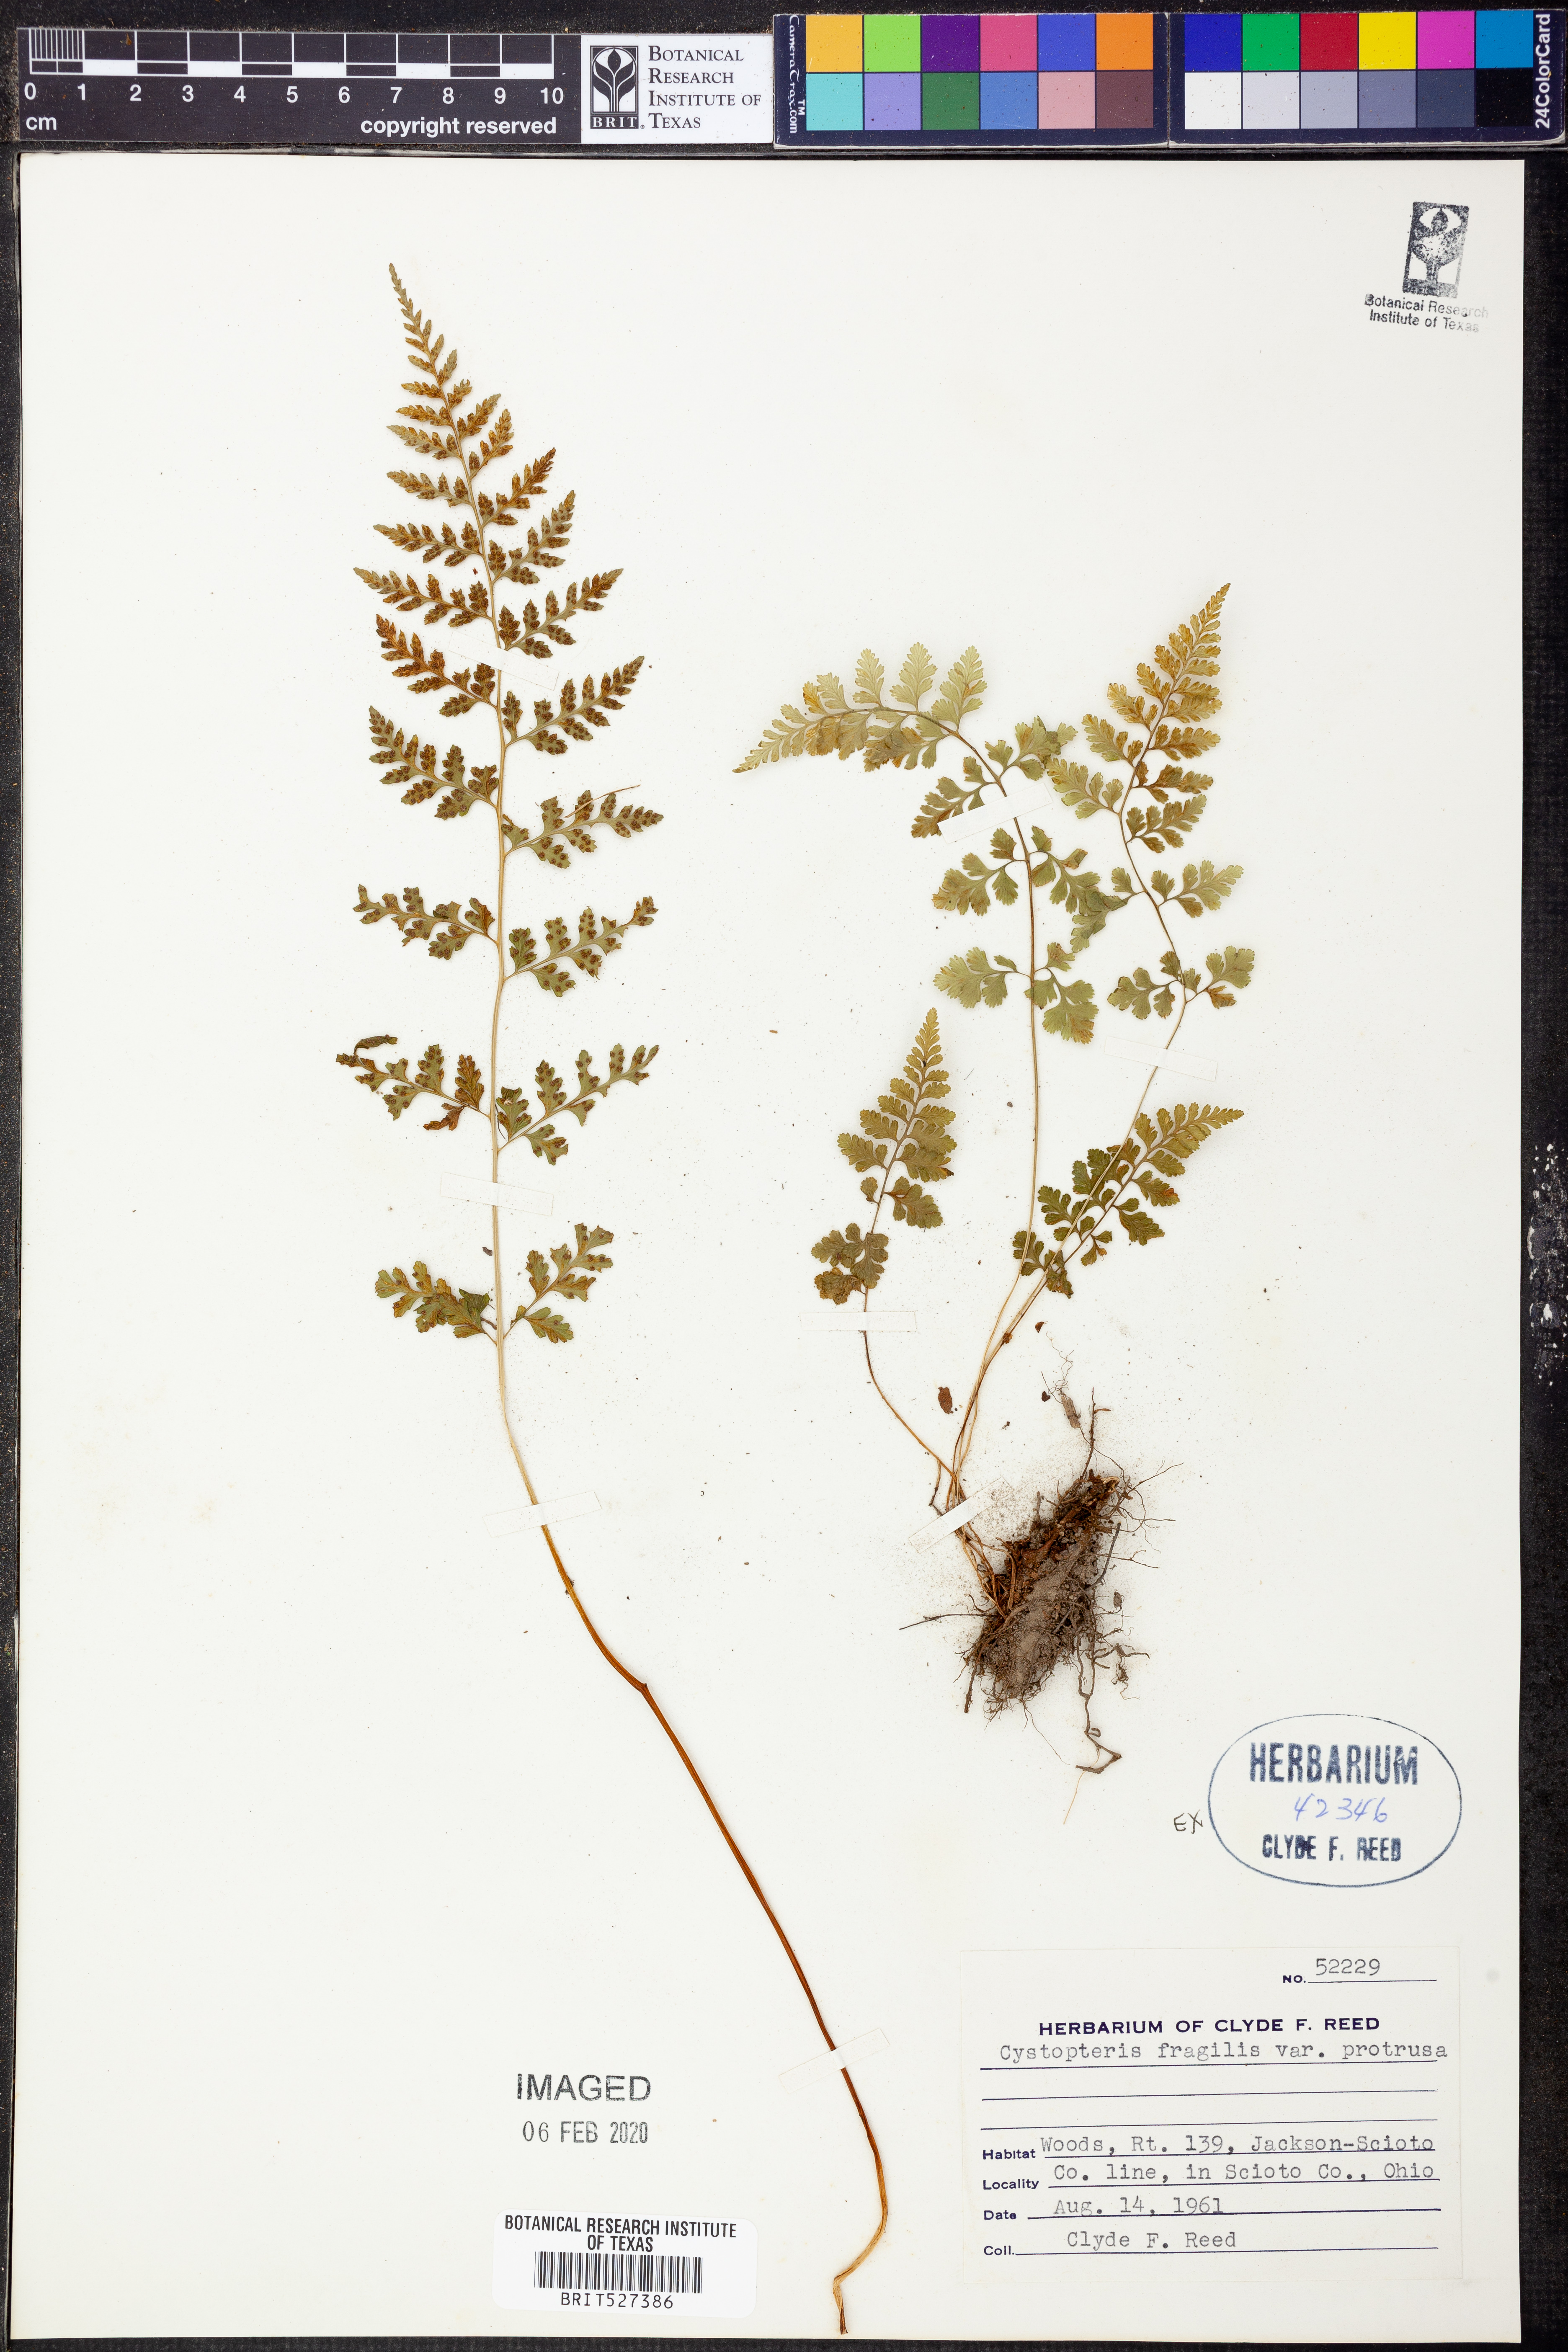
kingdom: Plantae
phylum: Tracheophyta
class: Polypodiopsida
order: Polypodiales
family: Cystopteridaceae
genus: Cystopteris
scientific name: Cystopteris protrusa
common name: Lowland brittle fern
